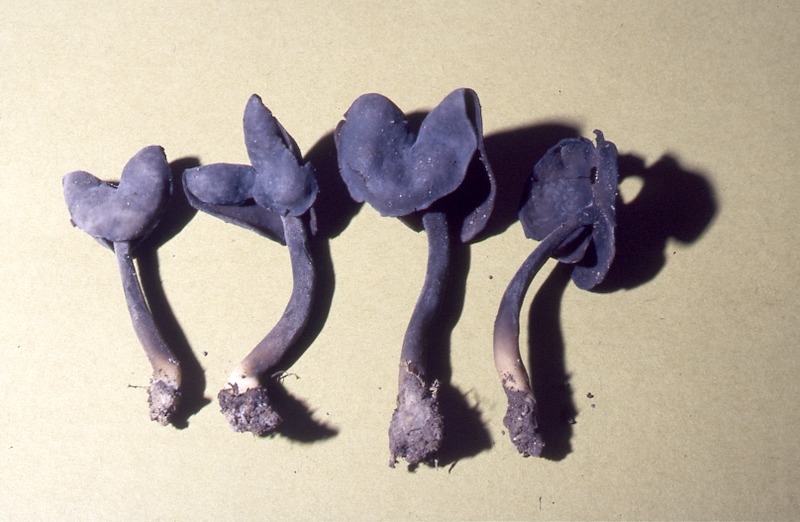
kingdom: Fungi
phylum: Ascomycota
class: Pezizomycetes
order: Pezizales
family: Helvellaceae
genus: Helvella
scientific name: Helvella atra
